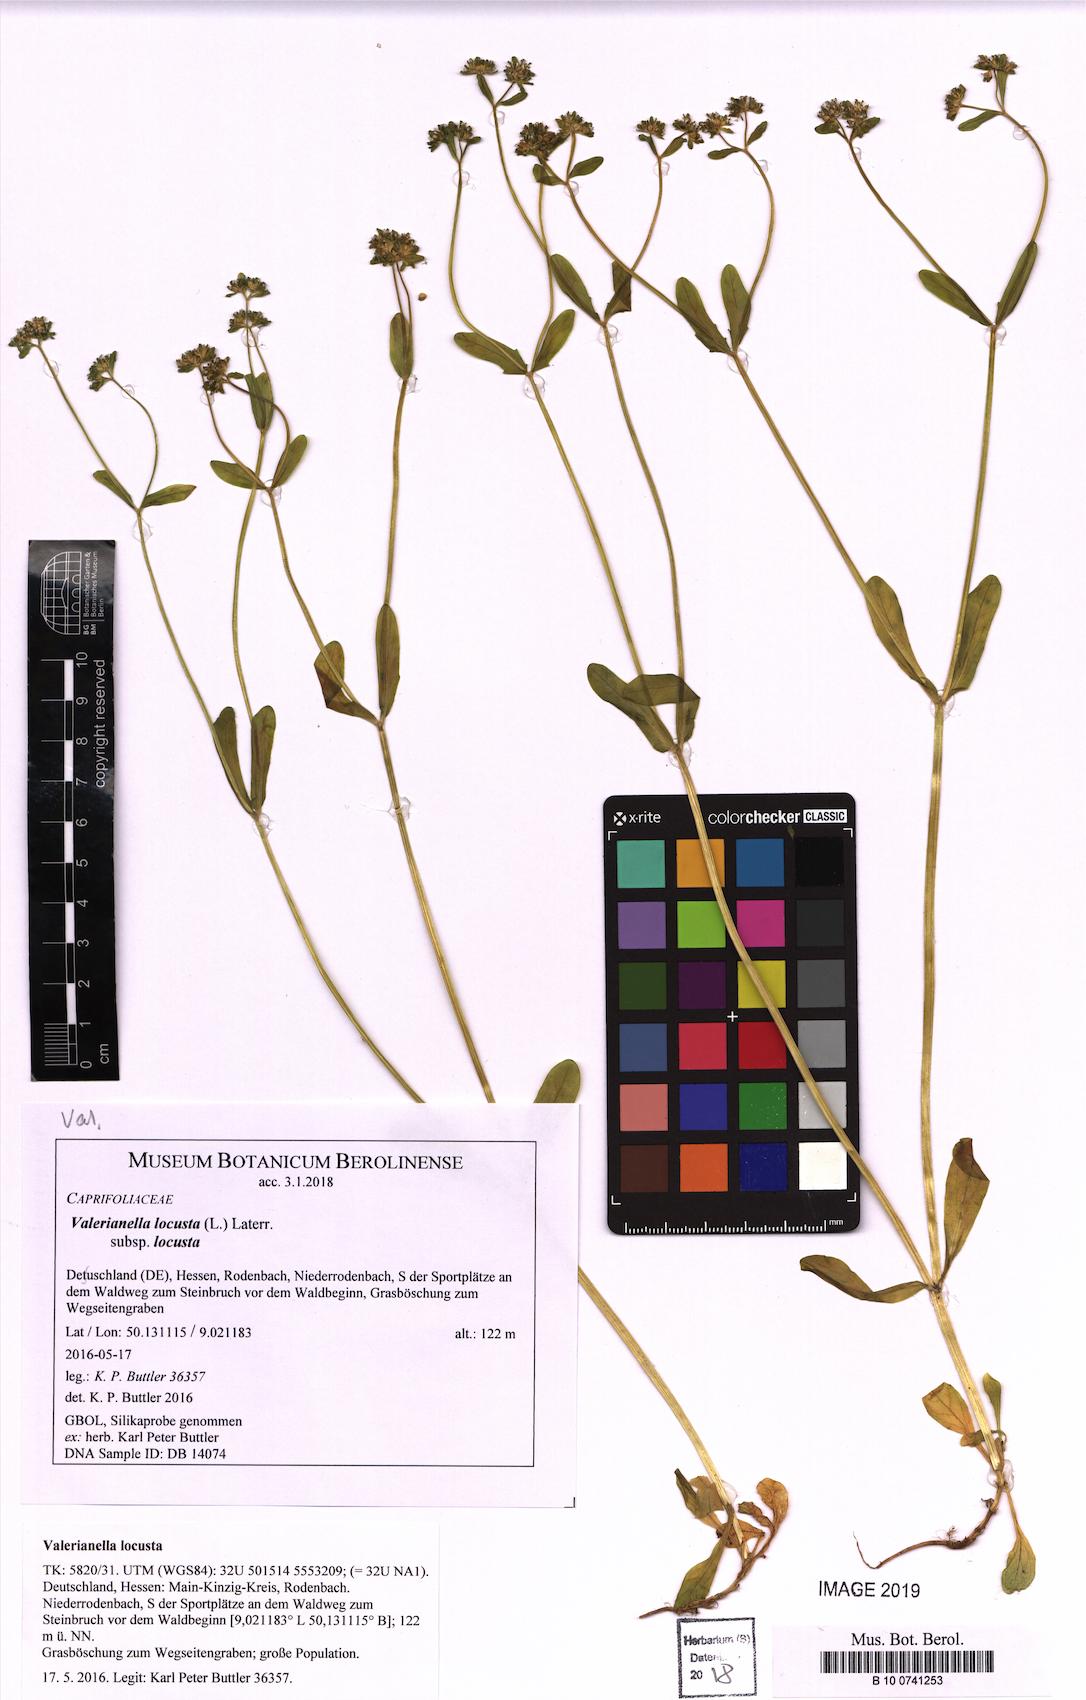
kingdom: Plantae
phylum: Tracheophyta
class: Magnoliopsida
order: Dipsacales
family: Caprifoliaceae
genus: Valerianella
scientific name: Valerianella locusta
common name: Common cornsalad
